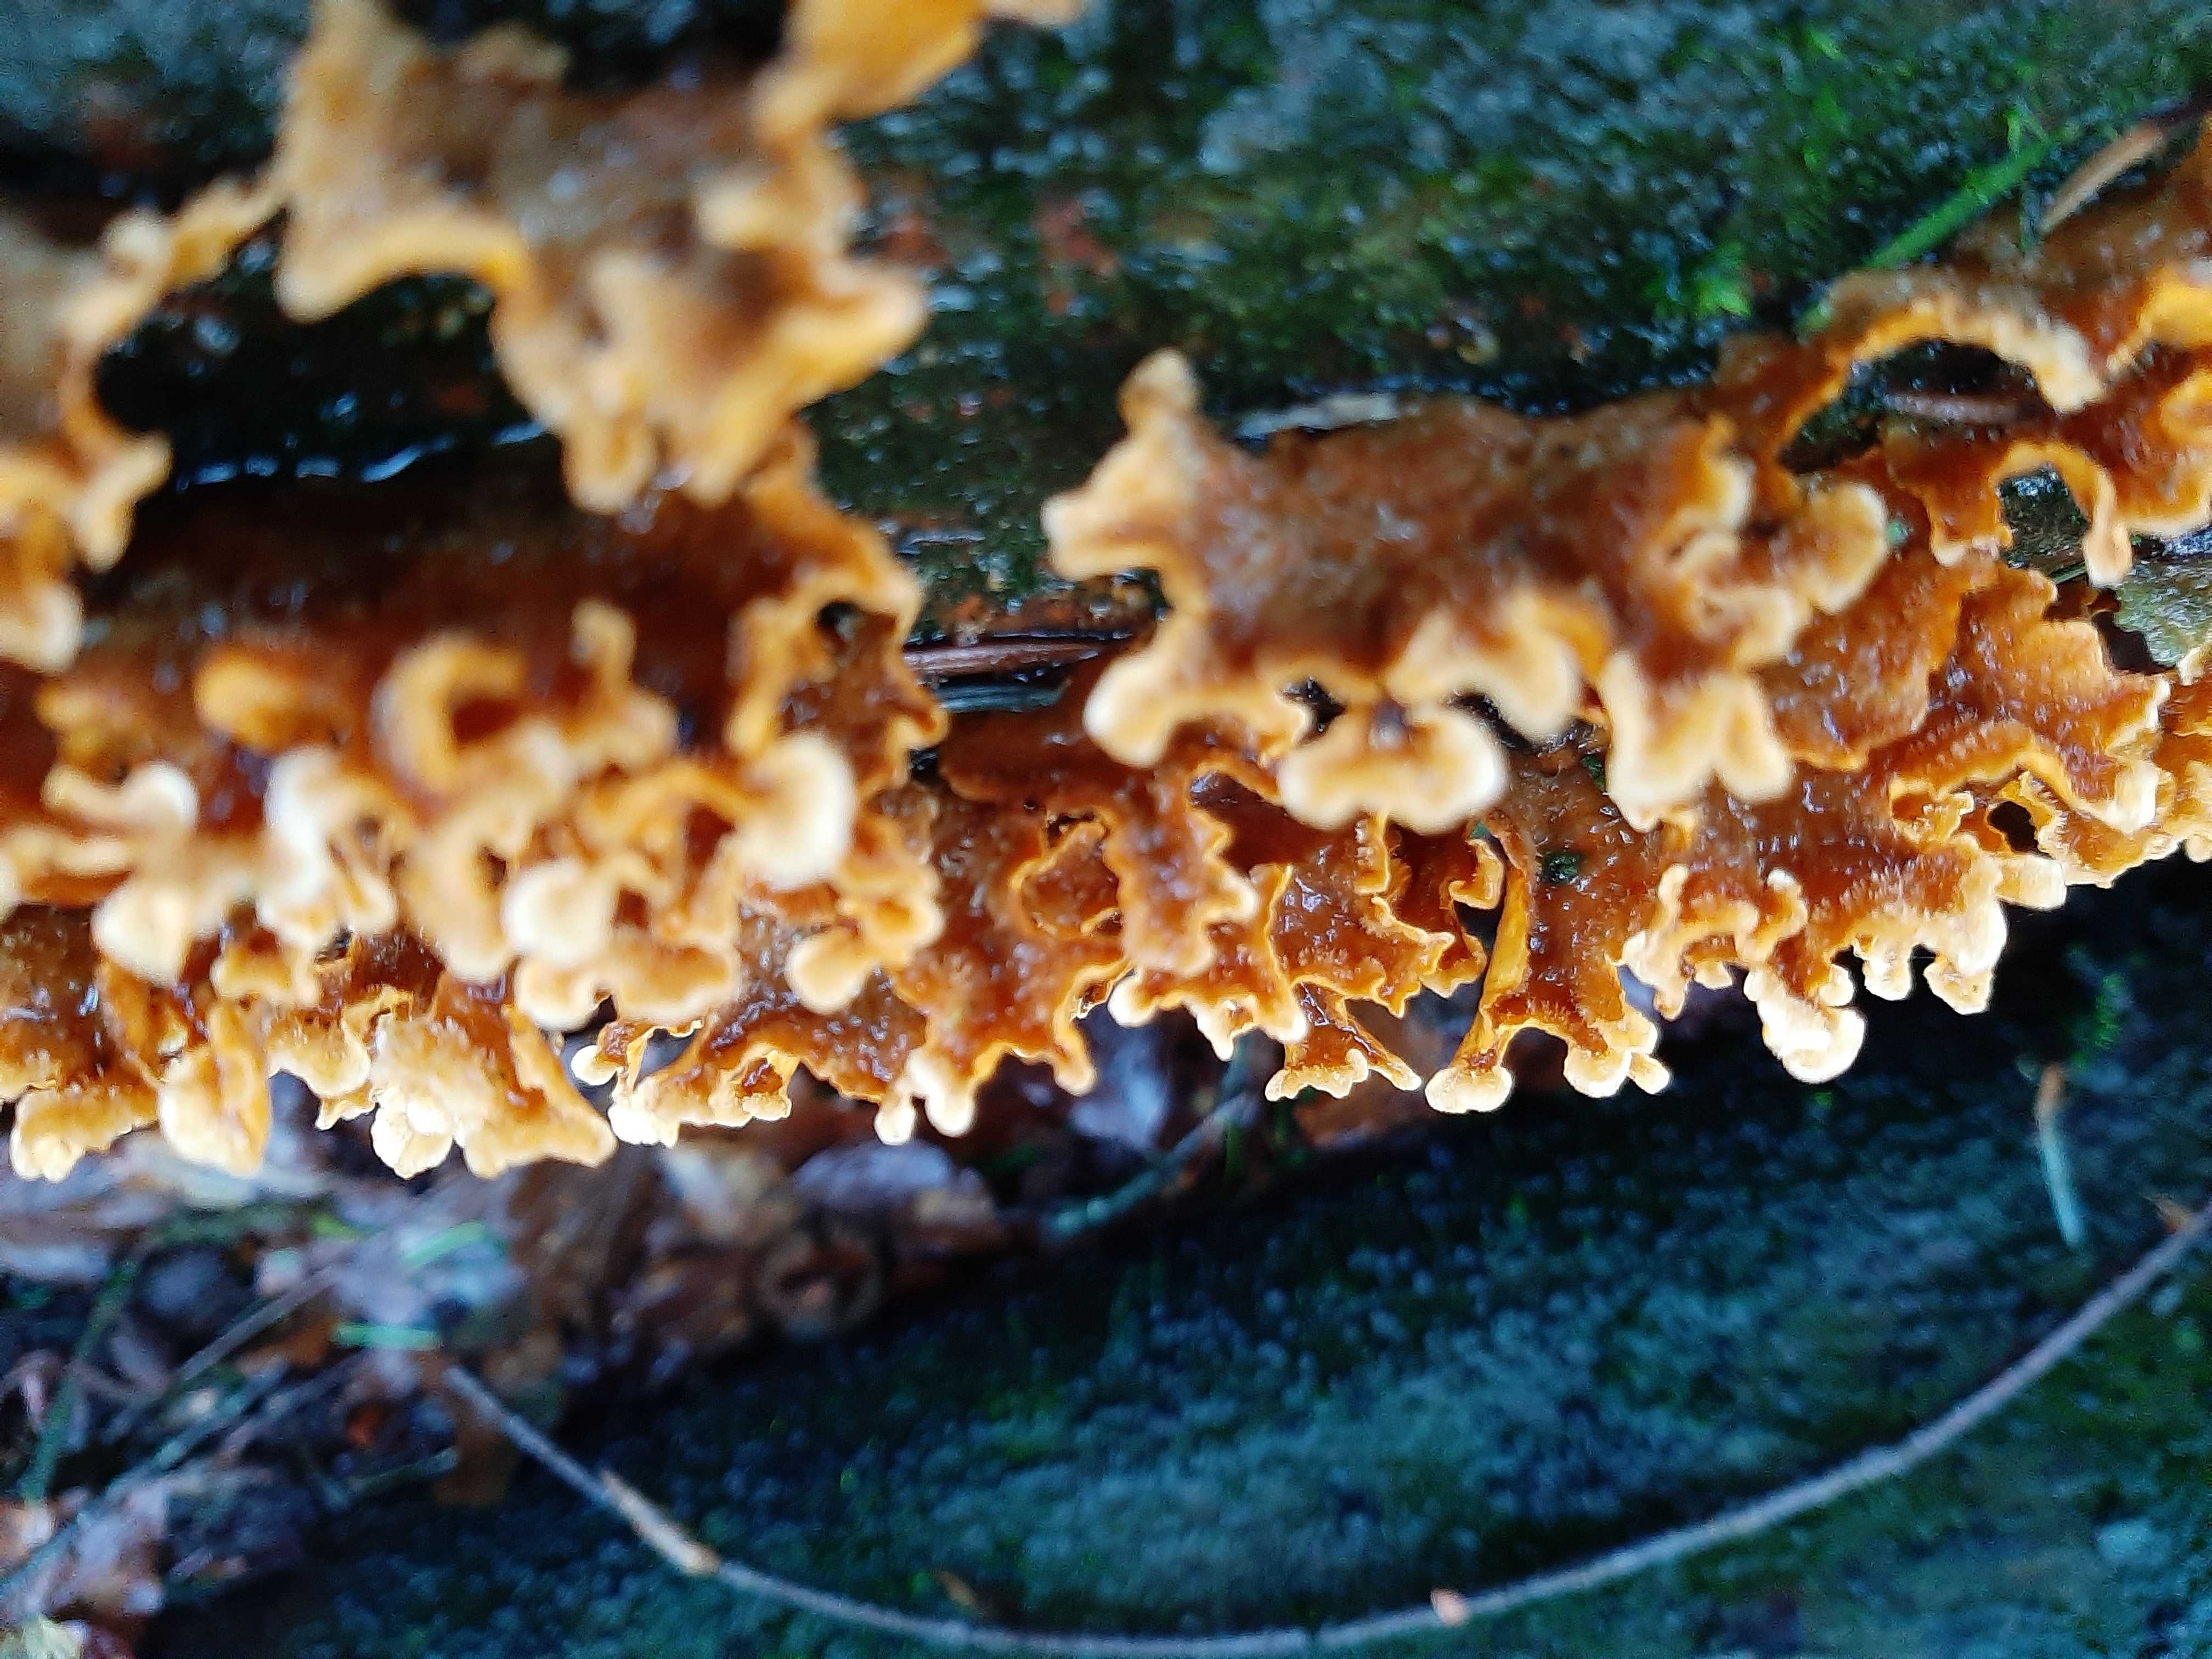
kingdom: Fungi
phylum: Basidiomycota
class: Agaricomycetes
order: Russulales
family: Stereaceae
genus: Stereum
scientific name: Stereum hirsutum
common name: håret lædersvamp
